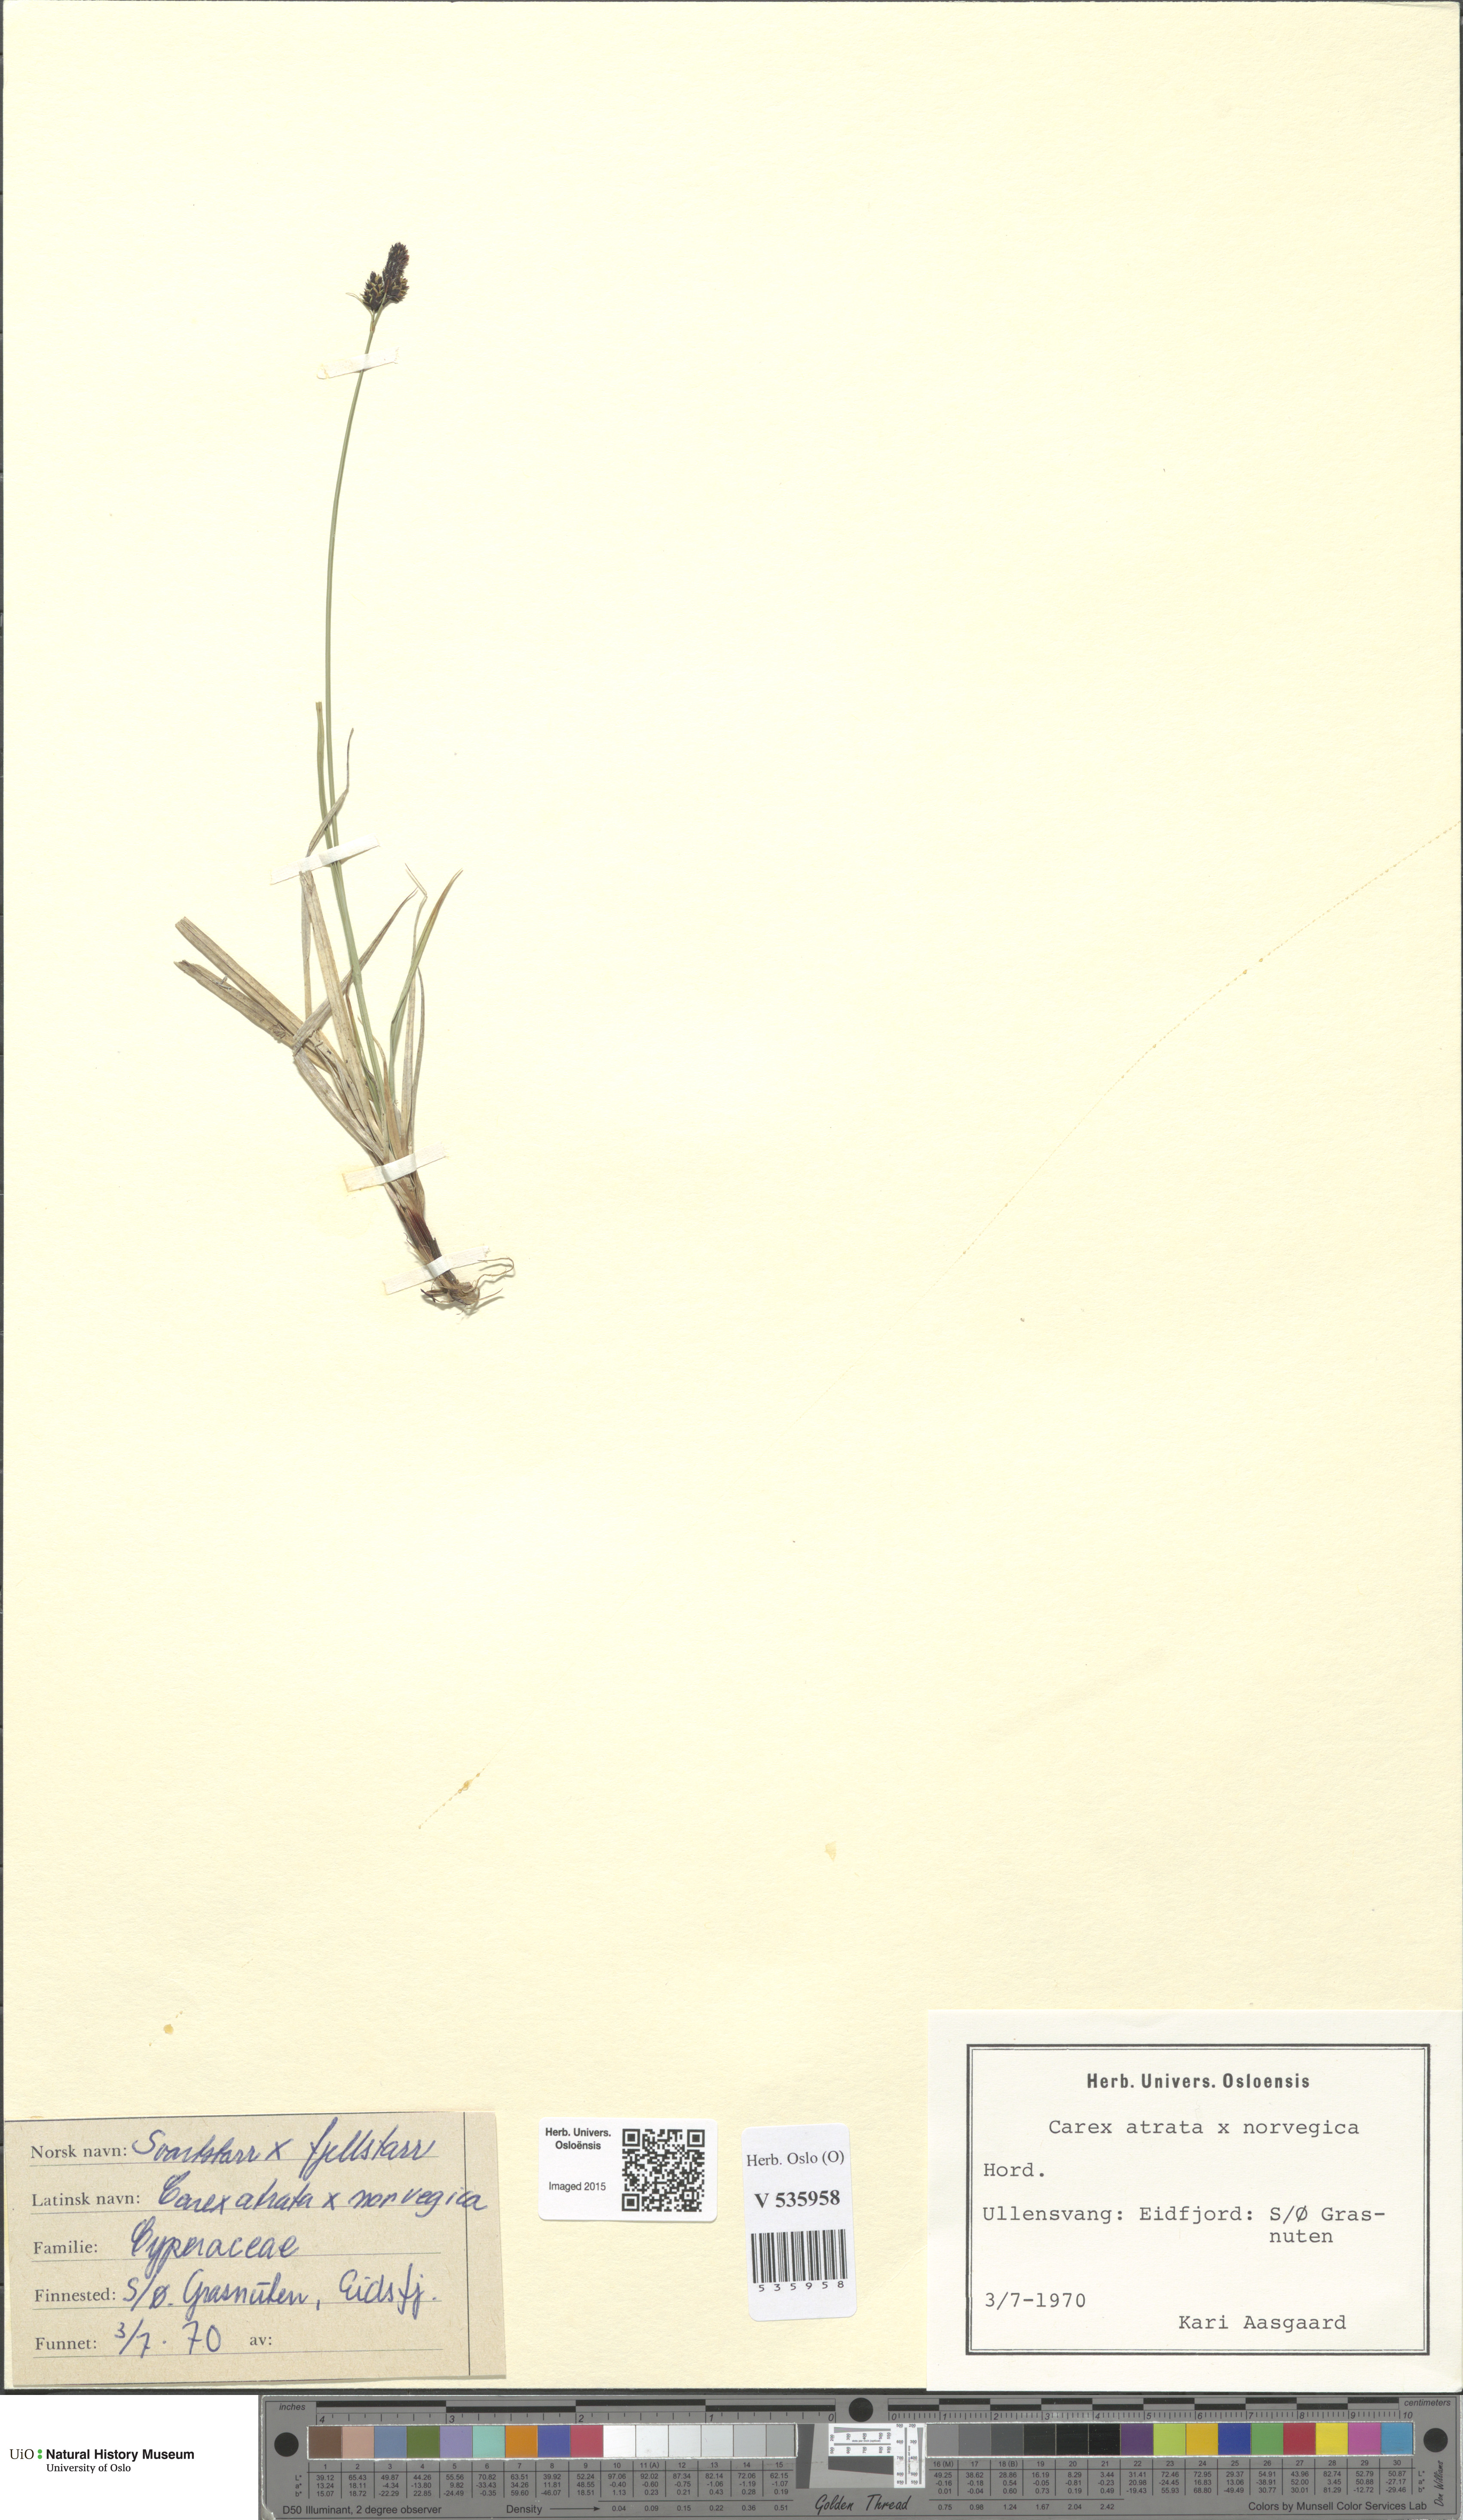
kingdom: Plantae
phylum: Tracheophyta
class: Liliopsida
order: Poales
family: Cyperaceae
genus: Carex
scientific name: Carex
